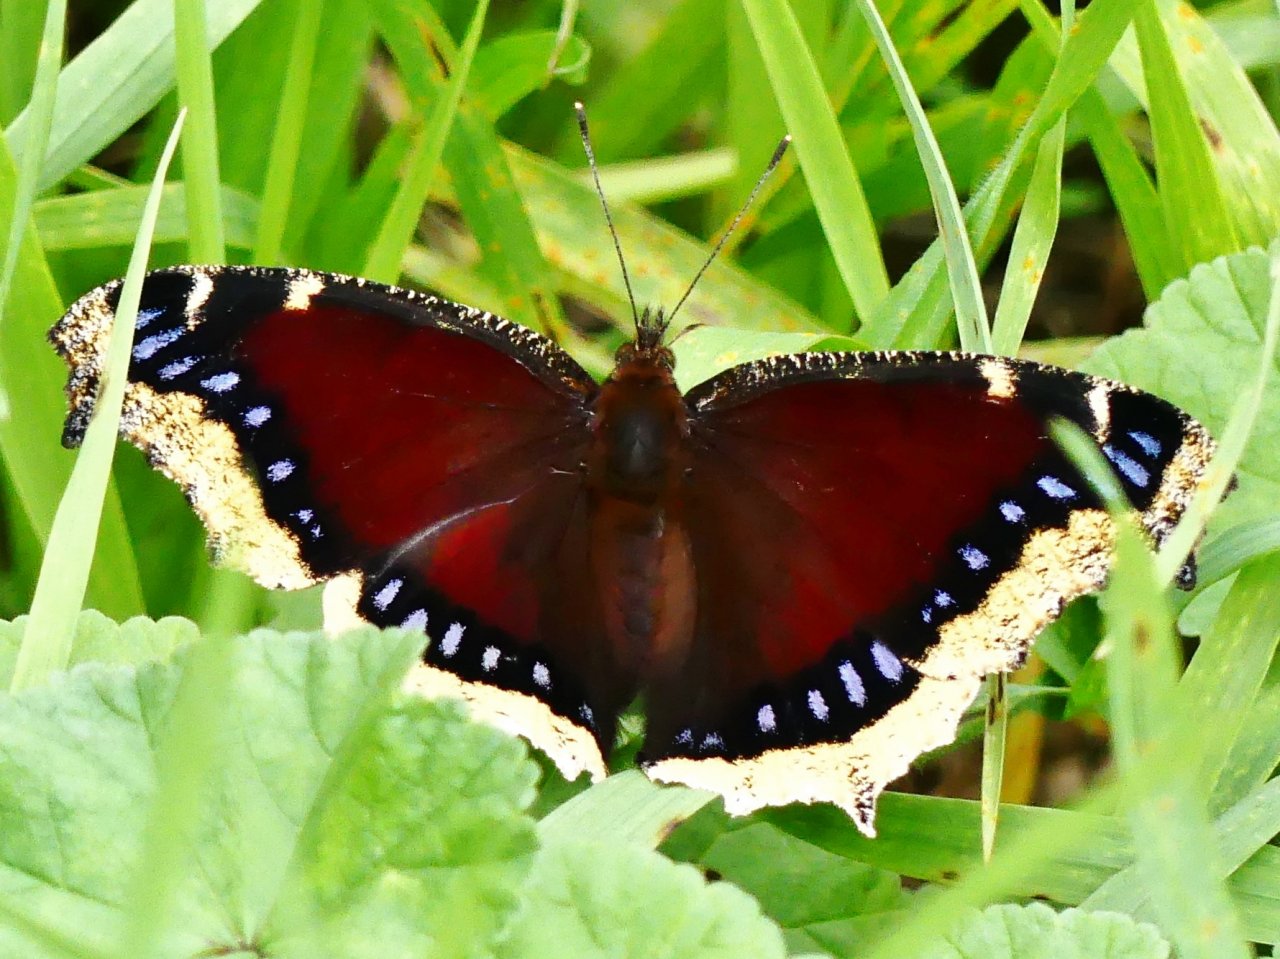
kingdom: Animalia
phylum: Arthropoda
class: Insecta
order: Lepidoptera
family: Nymphalidae
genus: Nymphalis
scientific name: Nymphalis antiopa
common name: Mourning Cloak
